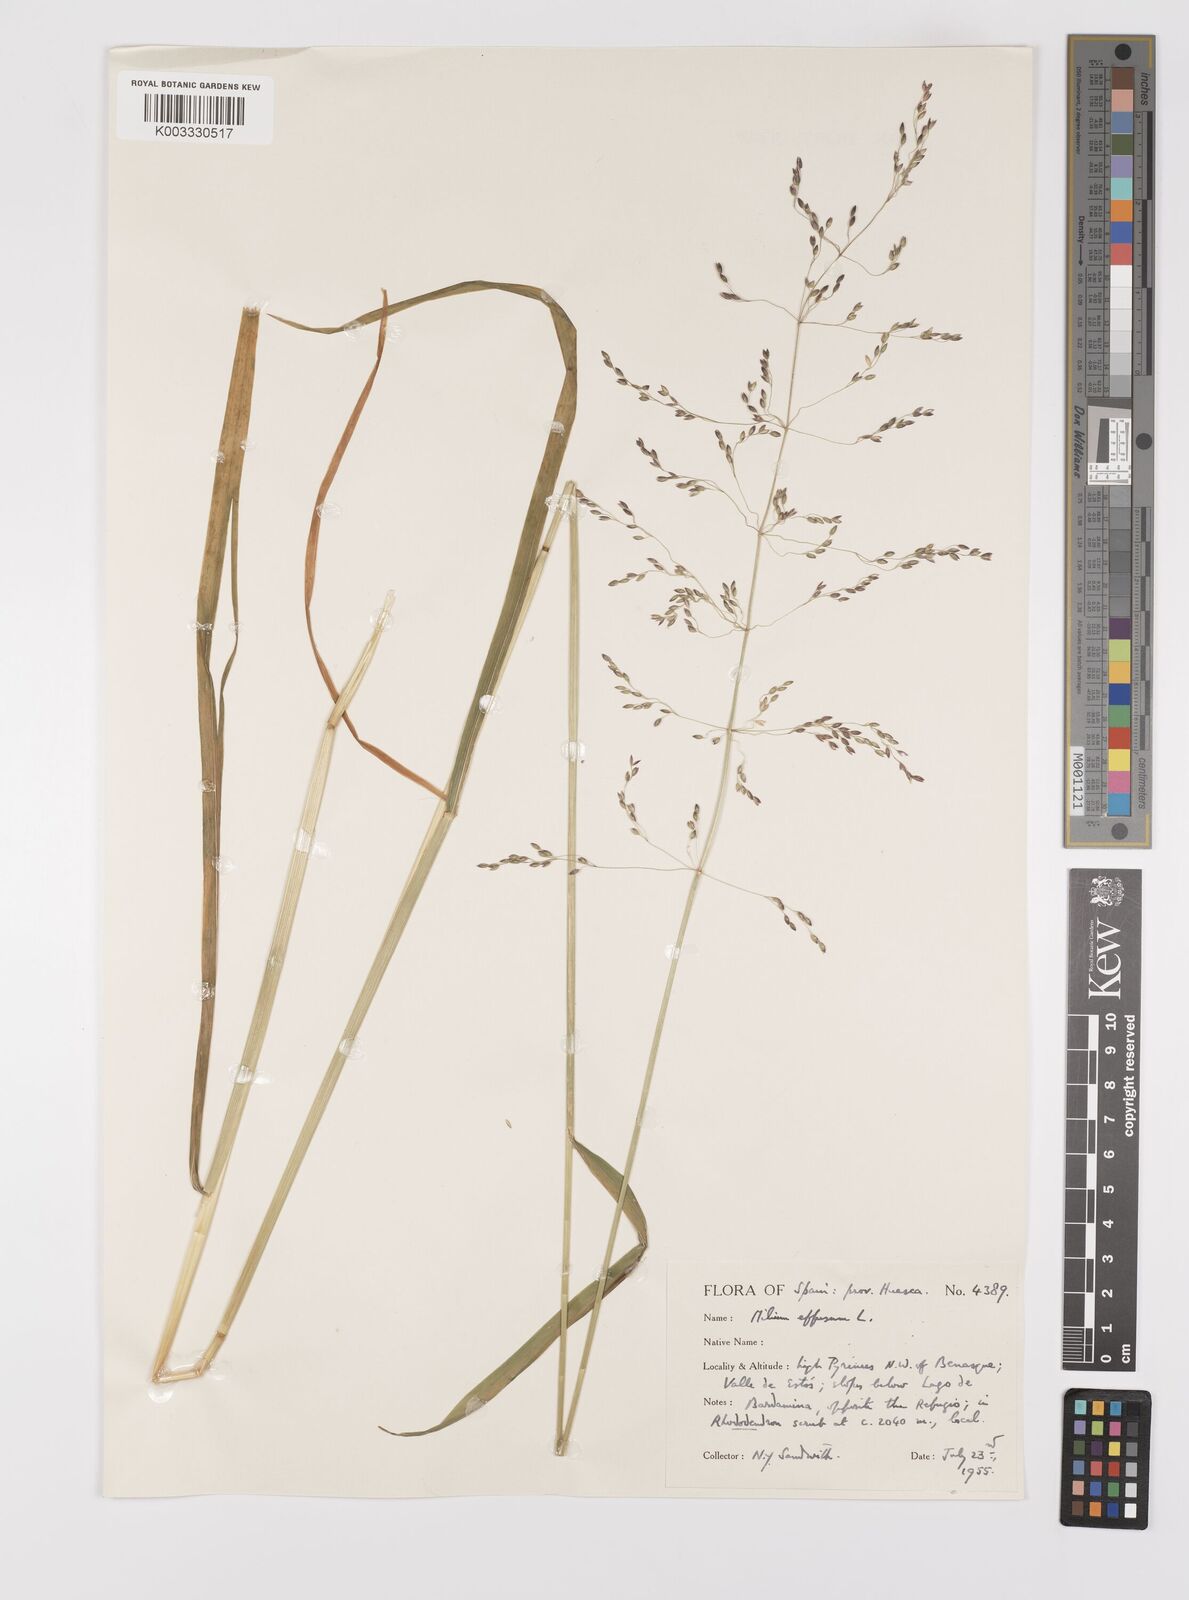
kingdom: Plantae
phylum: Tracheophyta
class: Liliopsida
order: Poales
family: Poaceae
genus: Milium
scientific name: Milium
